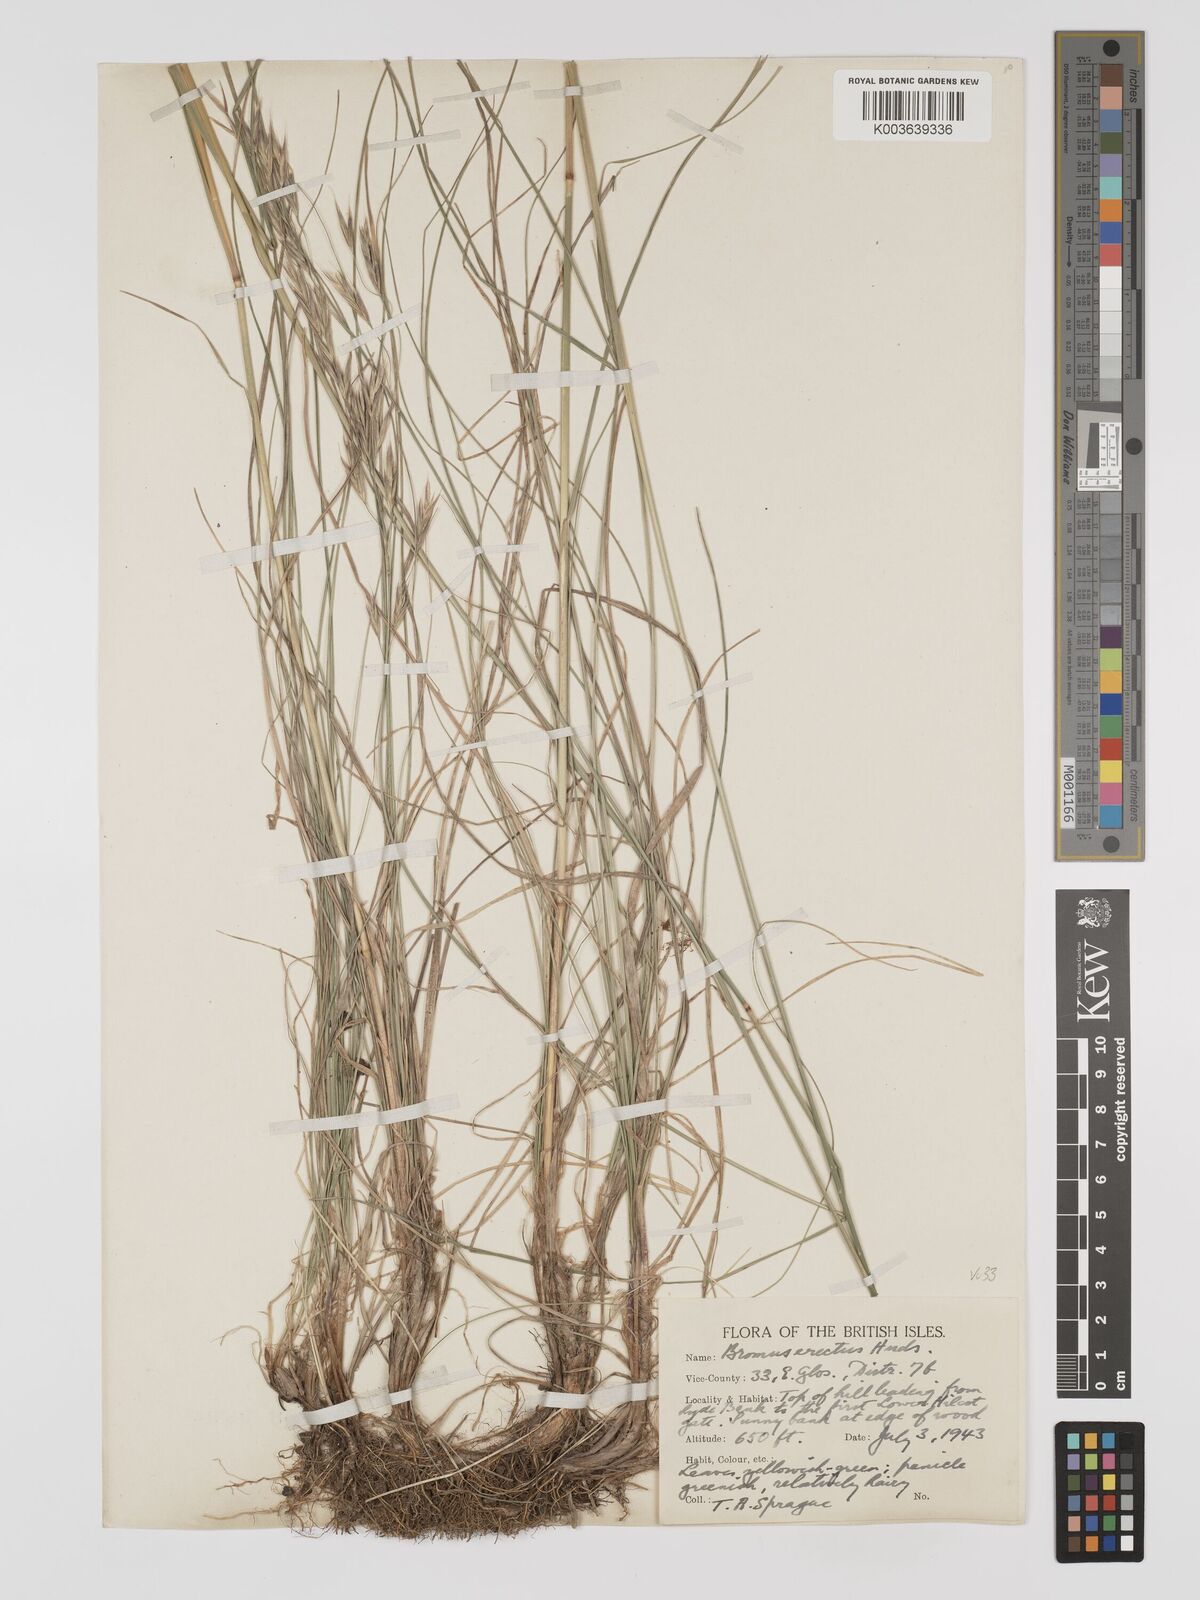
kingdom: Plantae
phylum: Tracheophyta
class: Liliopsida
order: Poales
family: Poaceae
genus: Bromus
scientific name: Bromus erectus
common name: Erect brome
